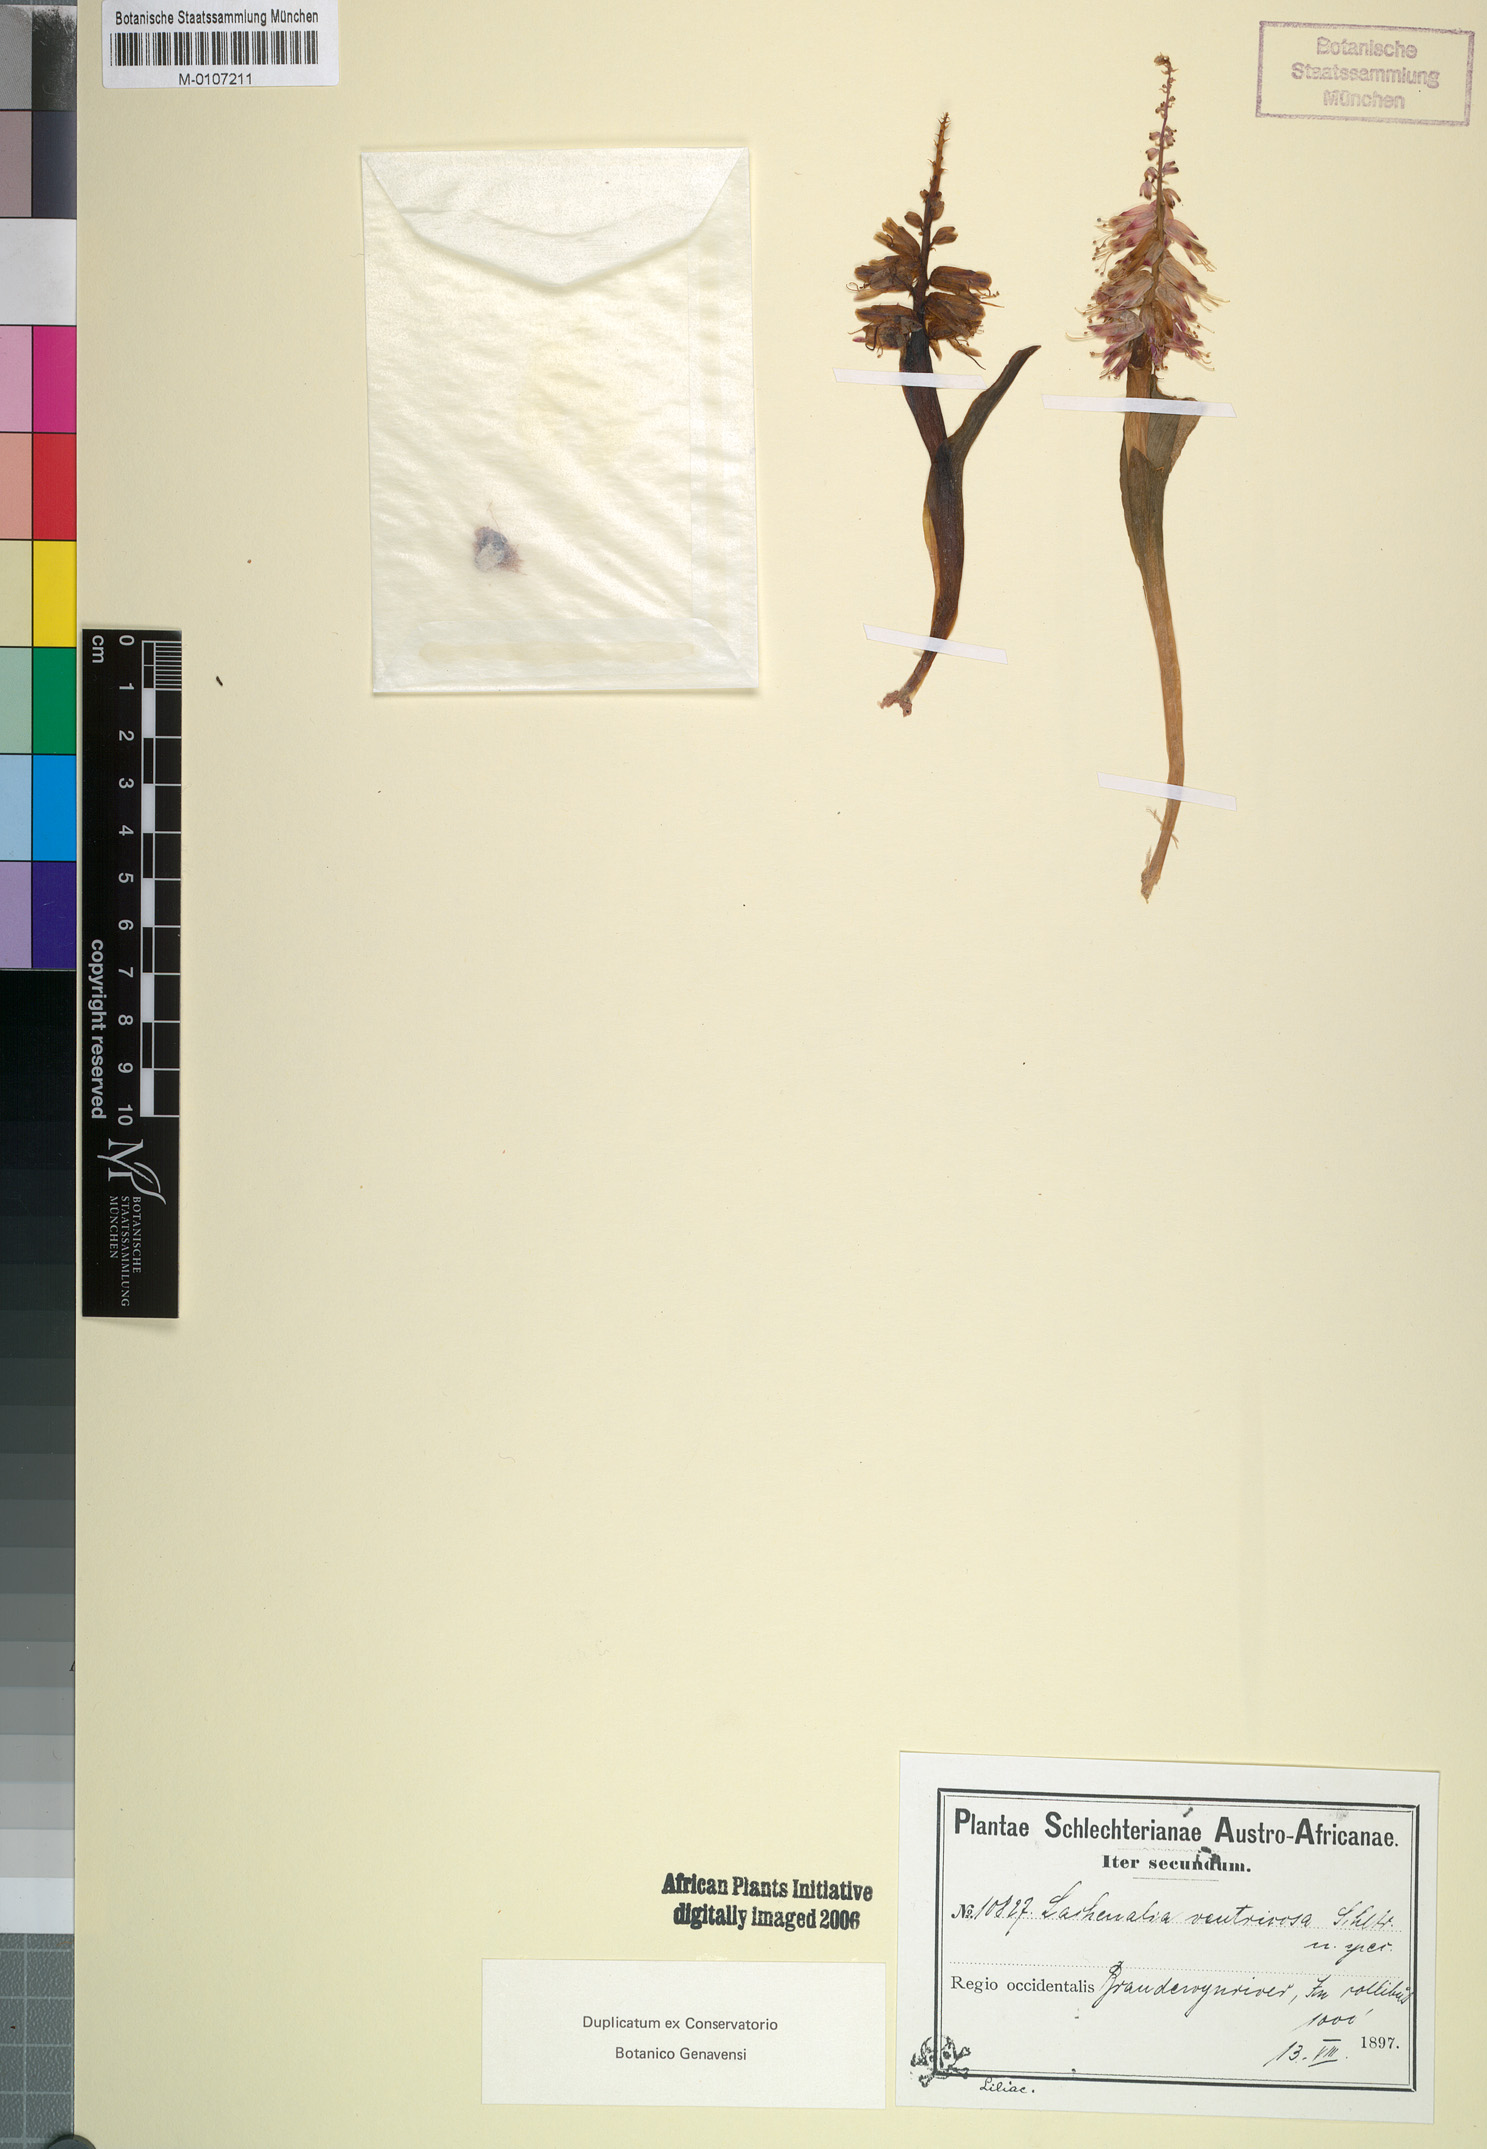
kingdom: Plantae
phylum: Tracheophyta
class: Liliopsida
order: Asparagales
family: Asparagaceae
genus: Lachenalia
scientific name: Lachenalia ventricosa
